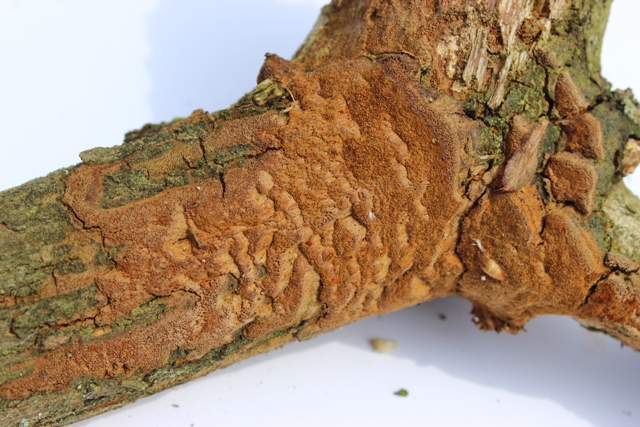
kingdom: Fungi
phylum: Basidiomycota
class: Agaricomycetes
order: Hymenochaetales
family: Hymenochaetaceae
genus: Fuscoporia
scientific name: Fuscoporia ferrea
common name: skorpe-ildporesvamp
